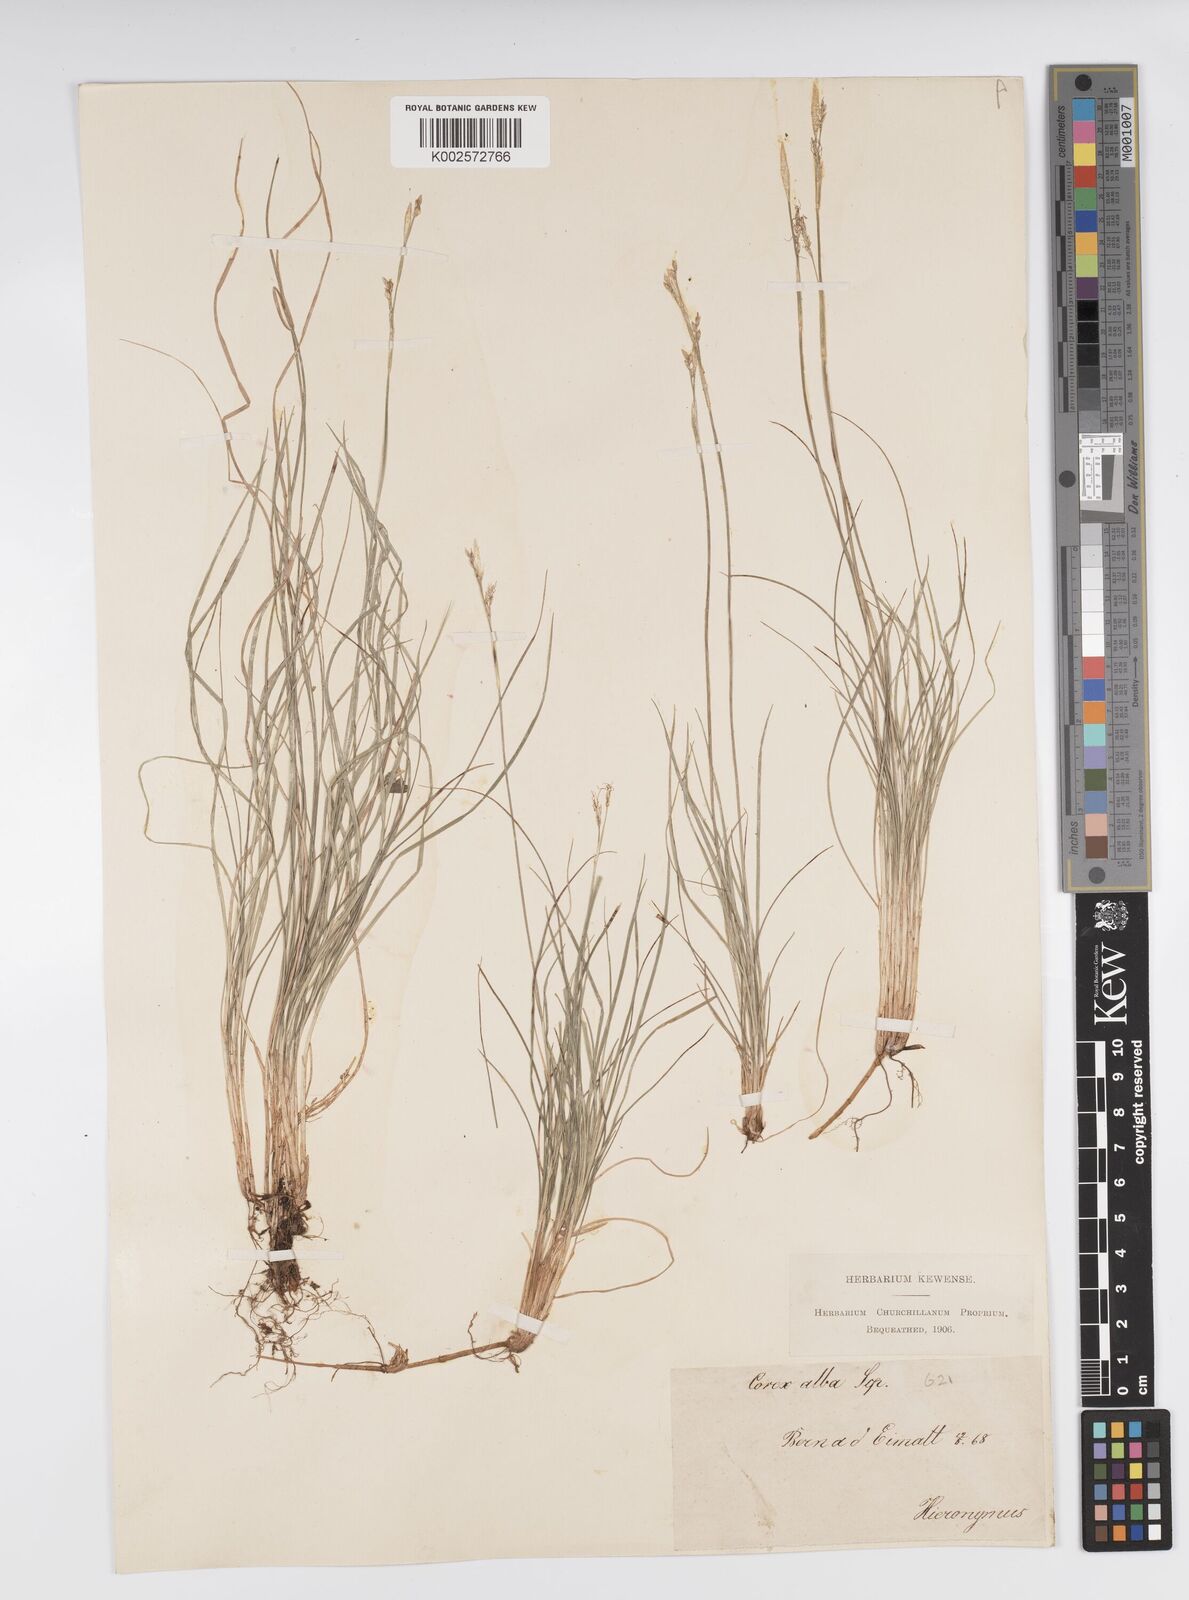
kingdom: Plantae
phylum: Tracheophyta
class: Liliopsida
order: Poales
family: Cyperaceae
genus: Carex
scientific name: Carex alba
